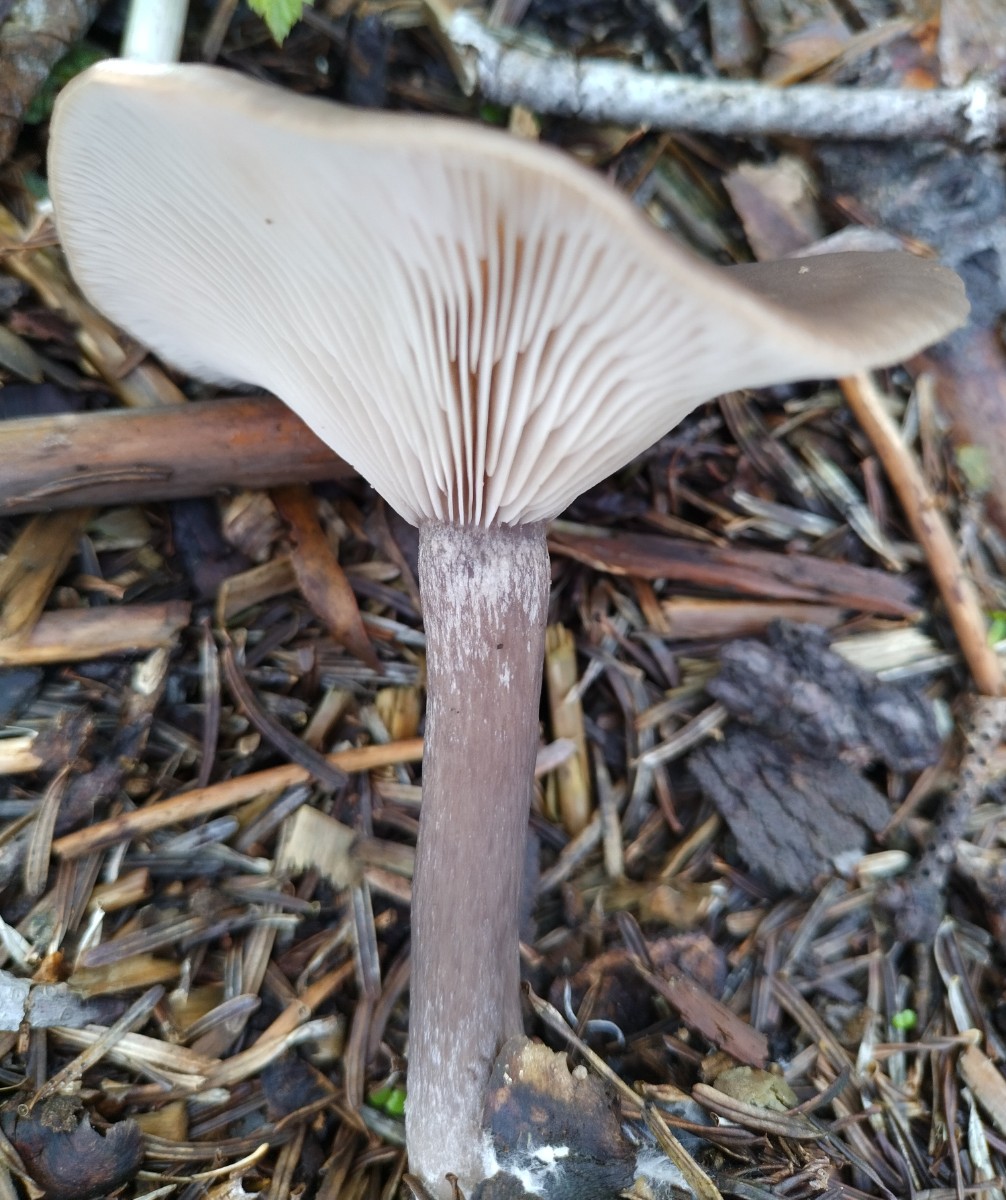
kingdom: Fungi
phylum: Basidiomycota
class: Agaricomycetes
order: Agaricales
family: Pseudoclitocybaceae
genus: Pseudoclitocybe
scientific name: Pseudoclitocybe cyathiformis
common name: almindelig bægertragthat
